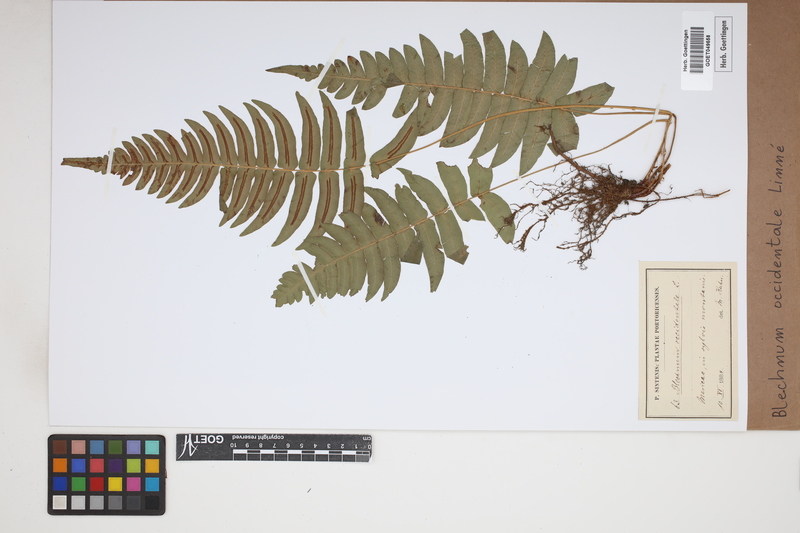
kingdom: Plantae
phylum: Tracheophyta
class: Polypodiopsida
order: Polypodiales
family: Blechnaceae
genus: Blechnum
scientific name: Blechnum occidentale
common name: Hammock fern
